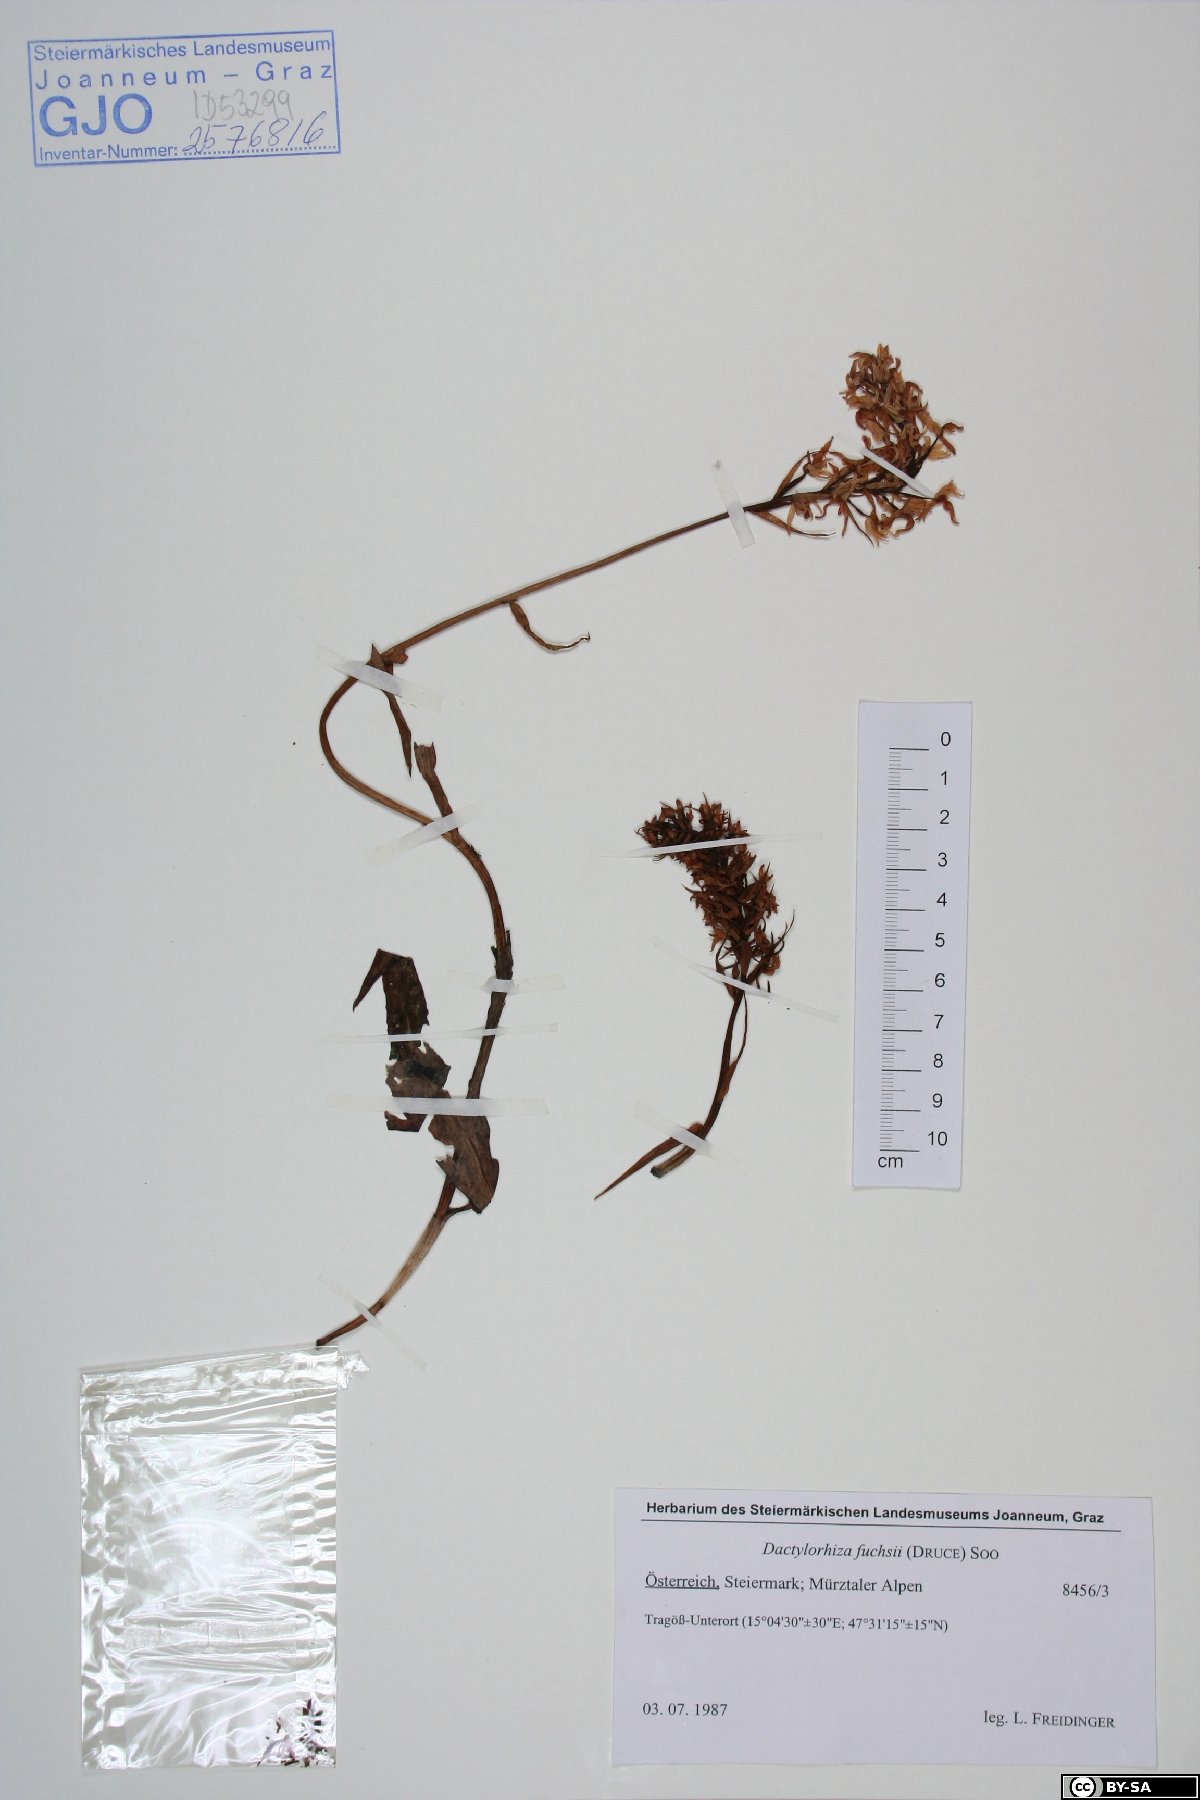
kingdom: Plantae
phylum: Tracheophyta
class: Liliopsida
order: Asparagales
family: Orchidaceae
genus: Dactylorhiza
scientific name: Dactylorhiza maculata
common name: Heath spotted-orchid
